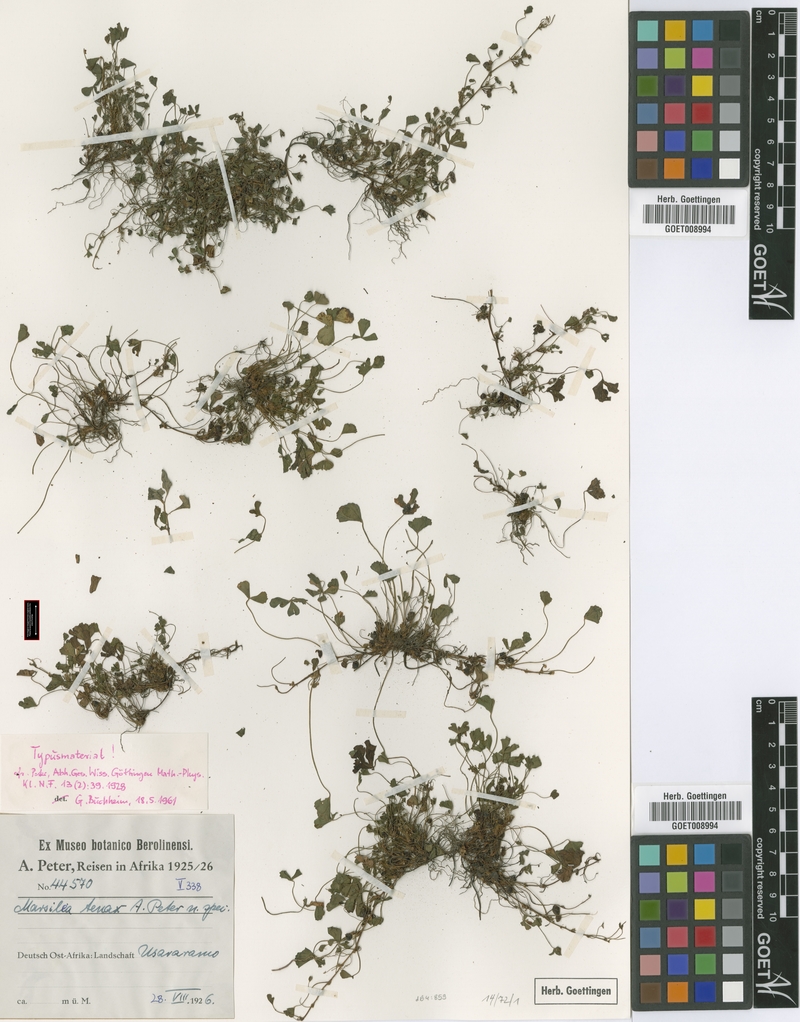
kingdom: Plantae
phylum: Tracheophyta
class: Polypodiopsida
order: Salviniales
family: Marsileaceae
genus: Marsilea
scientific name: Marsilea minuta
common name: Dwarf waterclover
